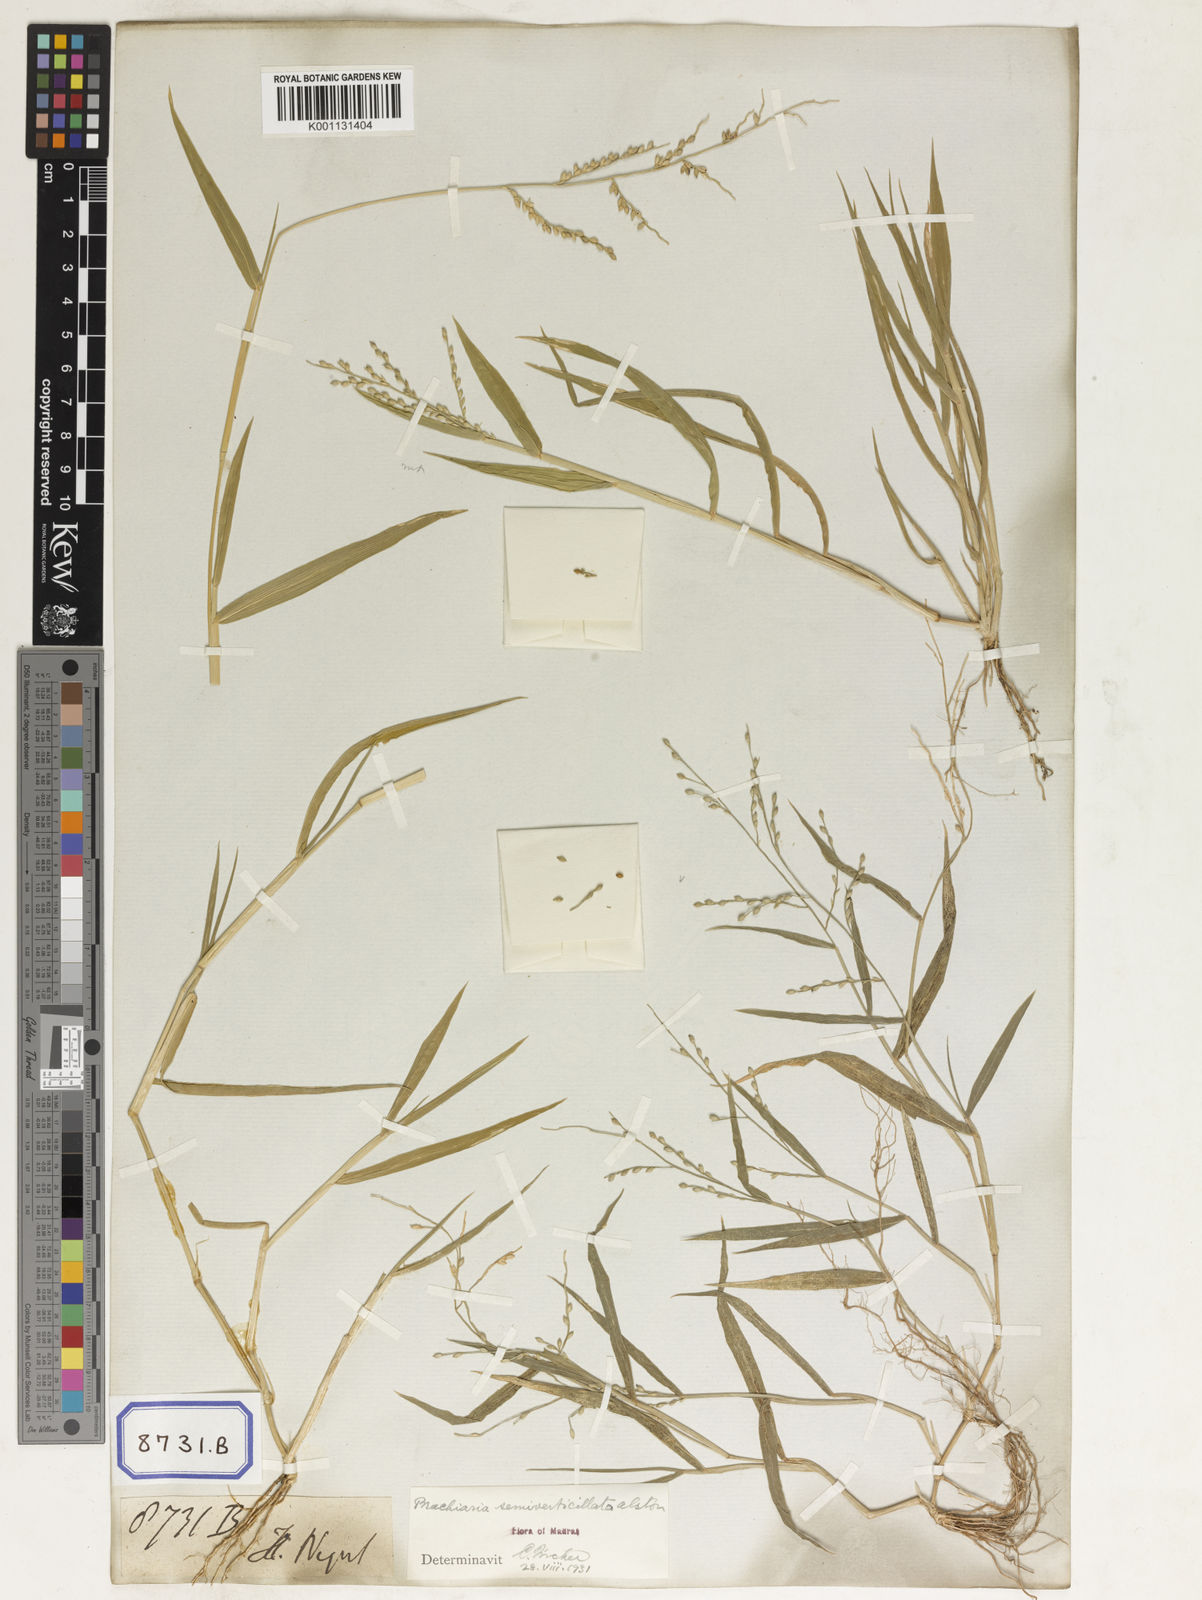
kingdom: Plantae
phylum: Tracheophyta
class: Liliopsida
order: Poales
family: Poaceae
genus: Panicum
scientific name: Panicum
